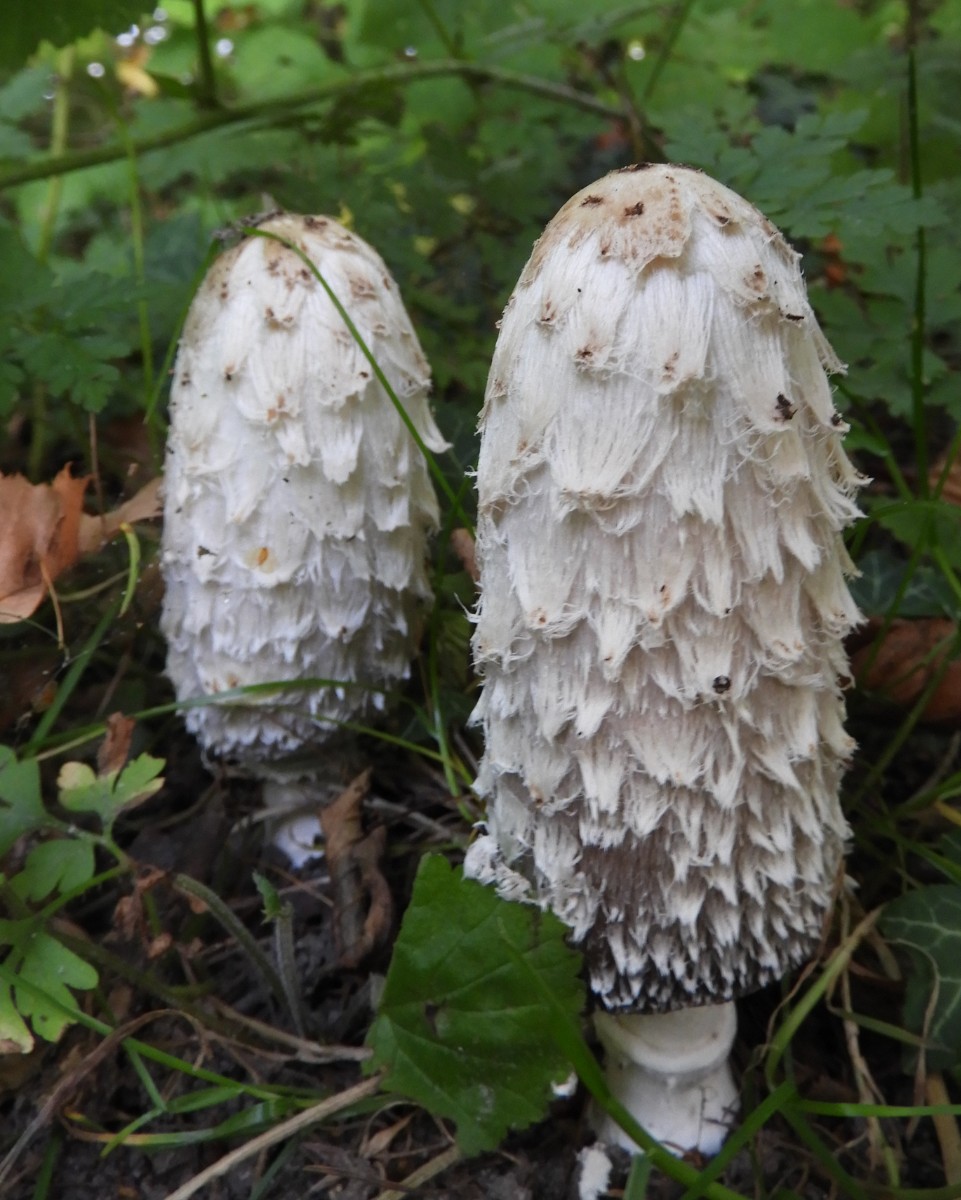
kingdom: Fungi
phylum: Basidiomycota
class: Agaricomycetes
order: Agaricales
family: Agaricaceae
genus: Coprinus
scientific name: Coprinus comatus
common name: stor parykhat
